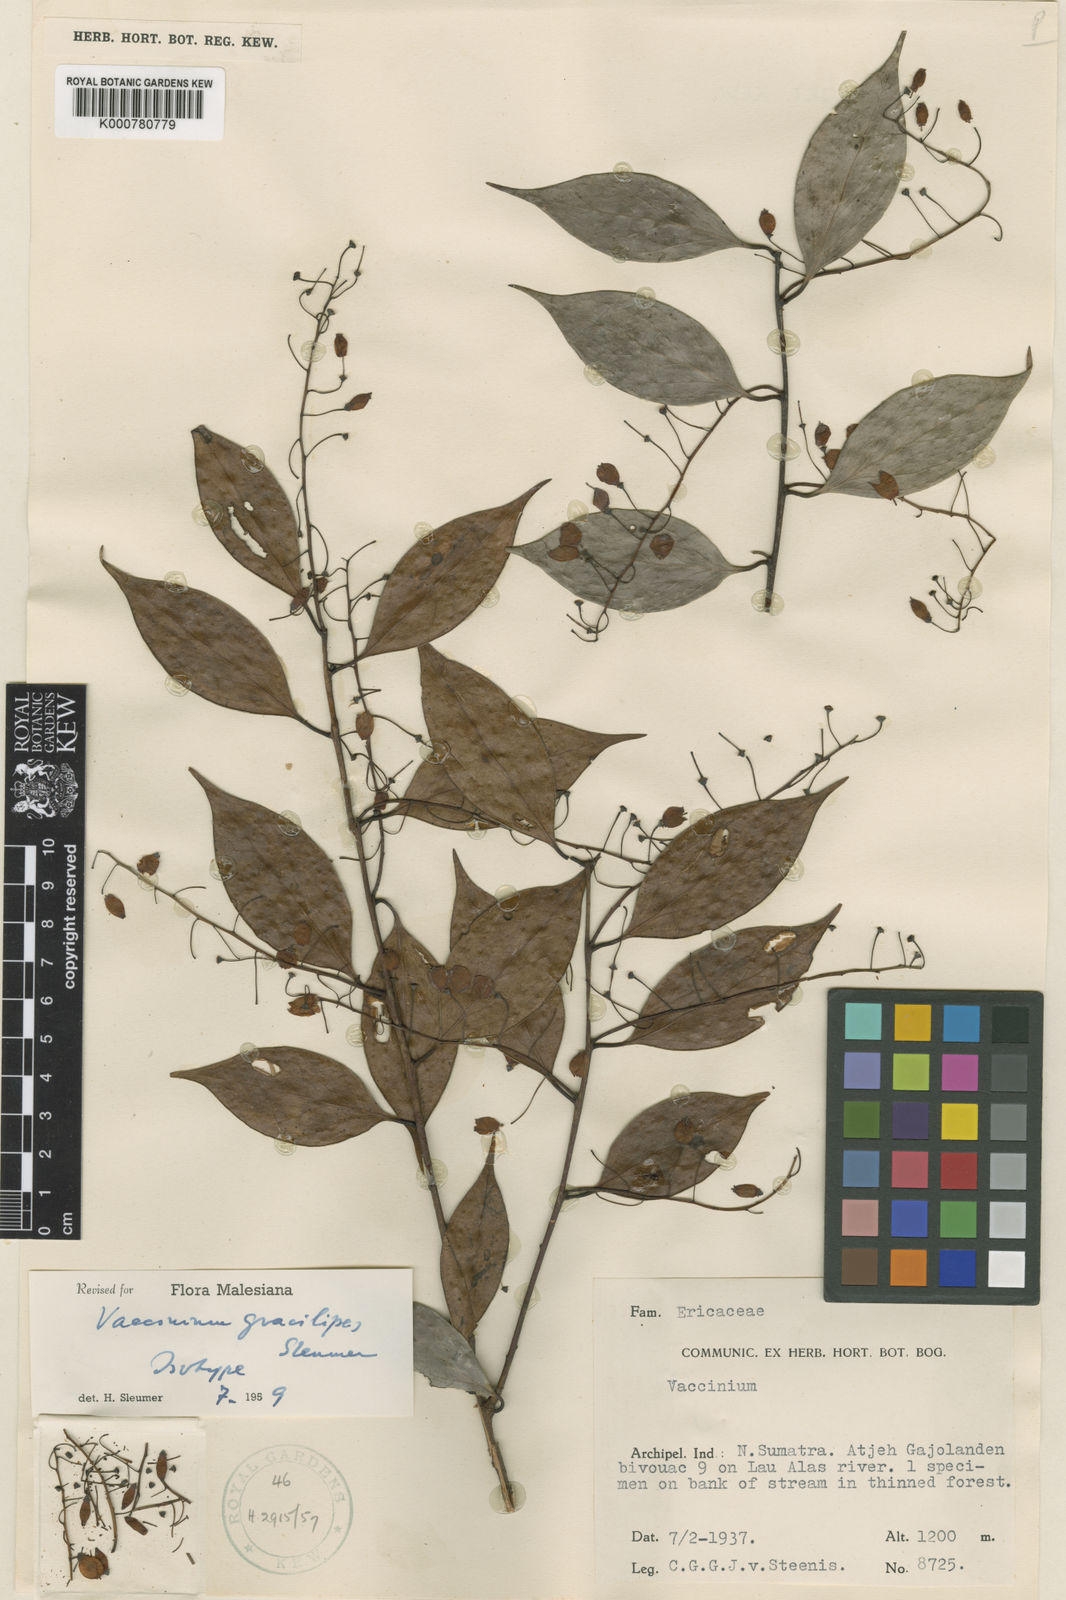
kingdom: Plantae
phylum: Tracheophyta
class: Magnoliopsida
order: Ericales
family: Ericaceae
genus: Vaccinium
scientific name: Vaccinium gracilipes
